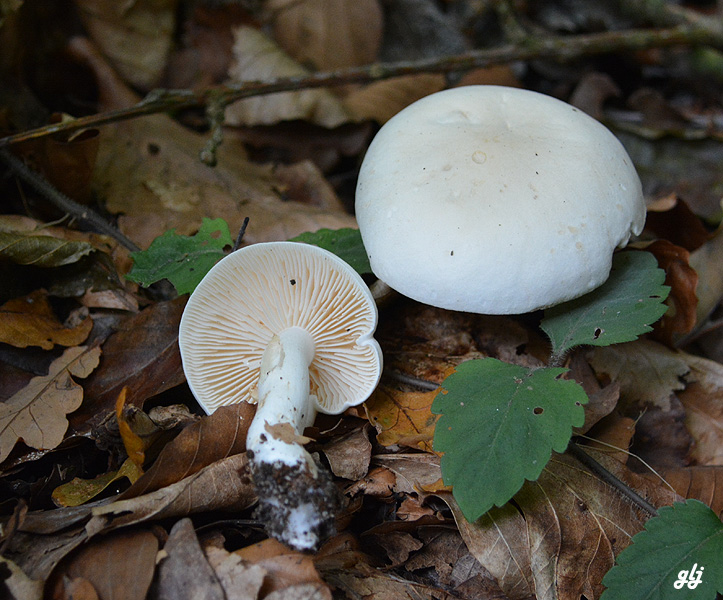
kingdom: Fungi
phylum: Basidiomycota
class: Agaricomycetes
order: Agaricales
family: Tricholomataceae
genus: Tricholoma
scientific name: Tricholoma
